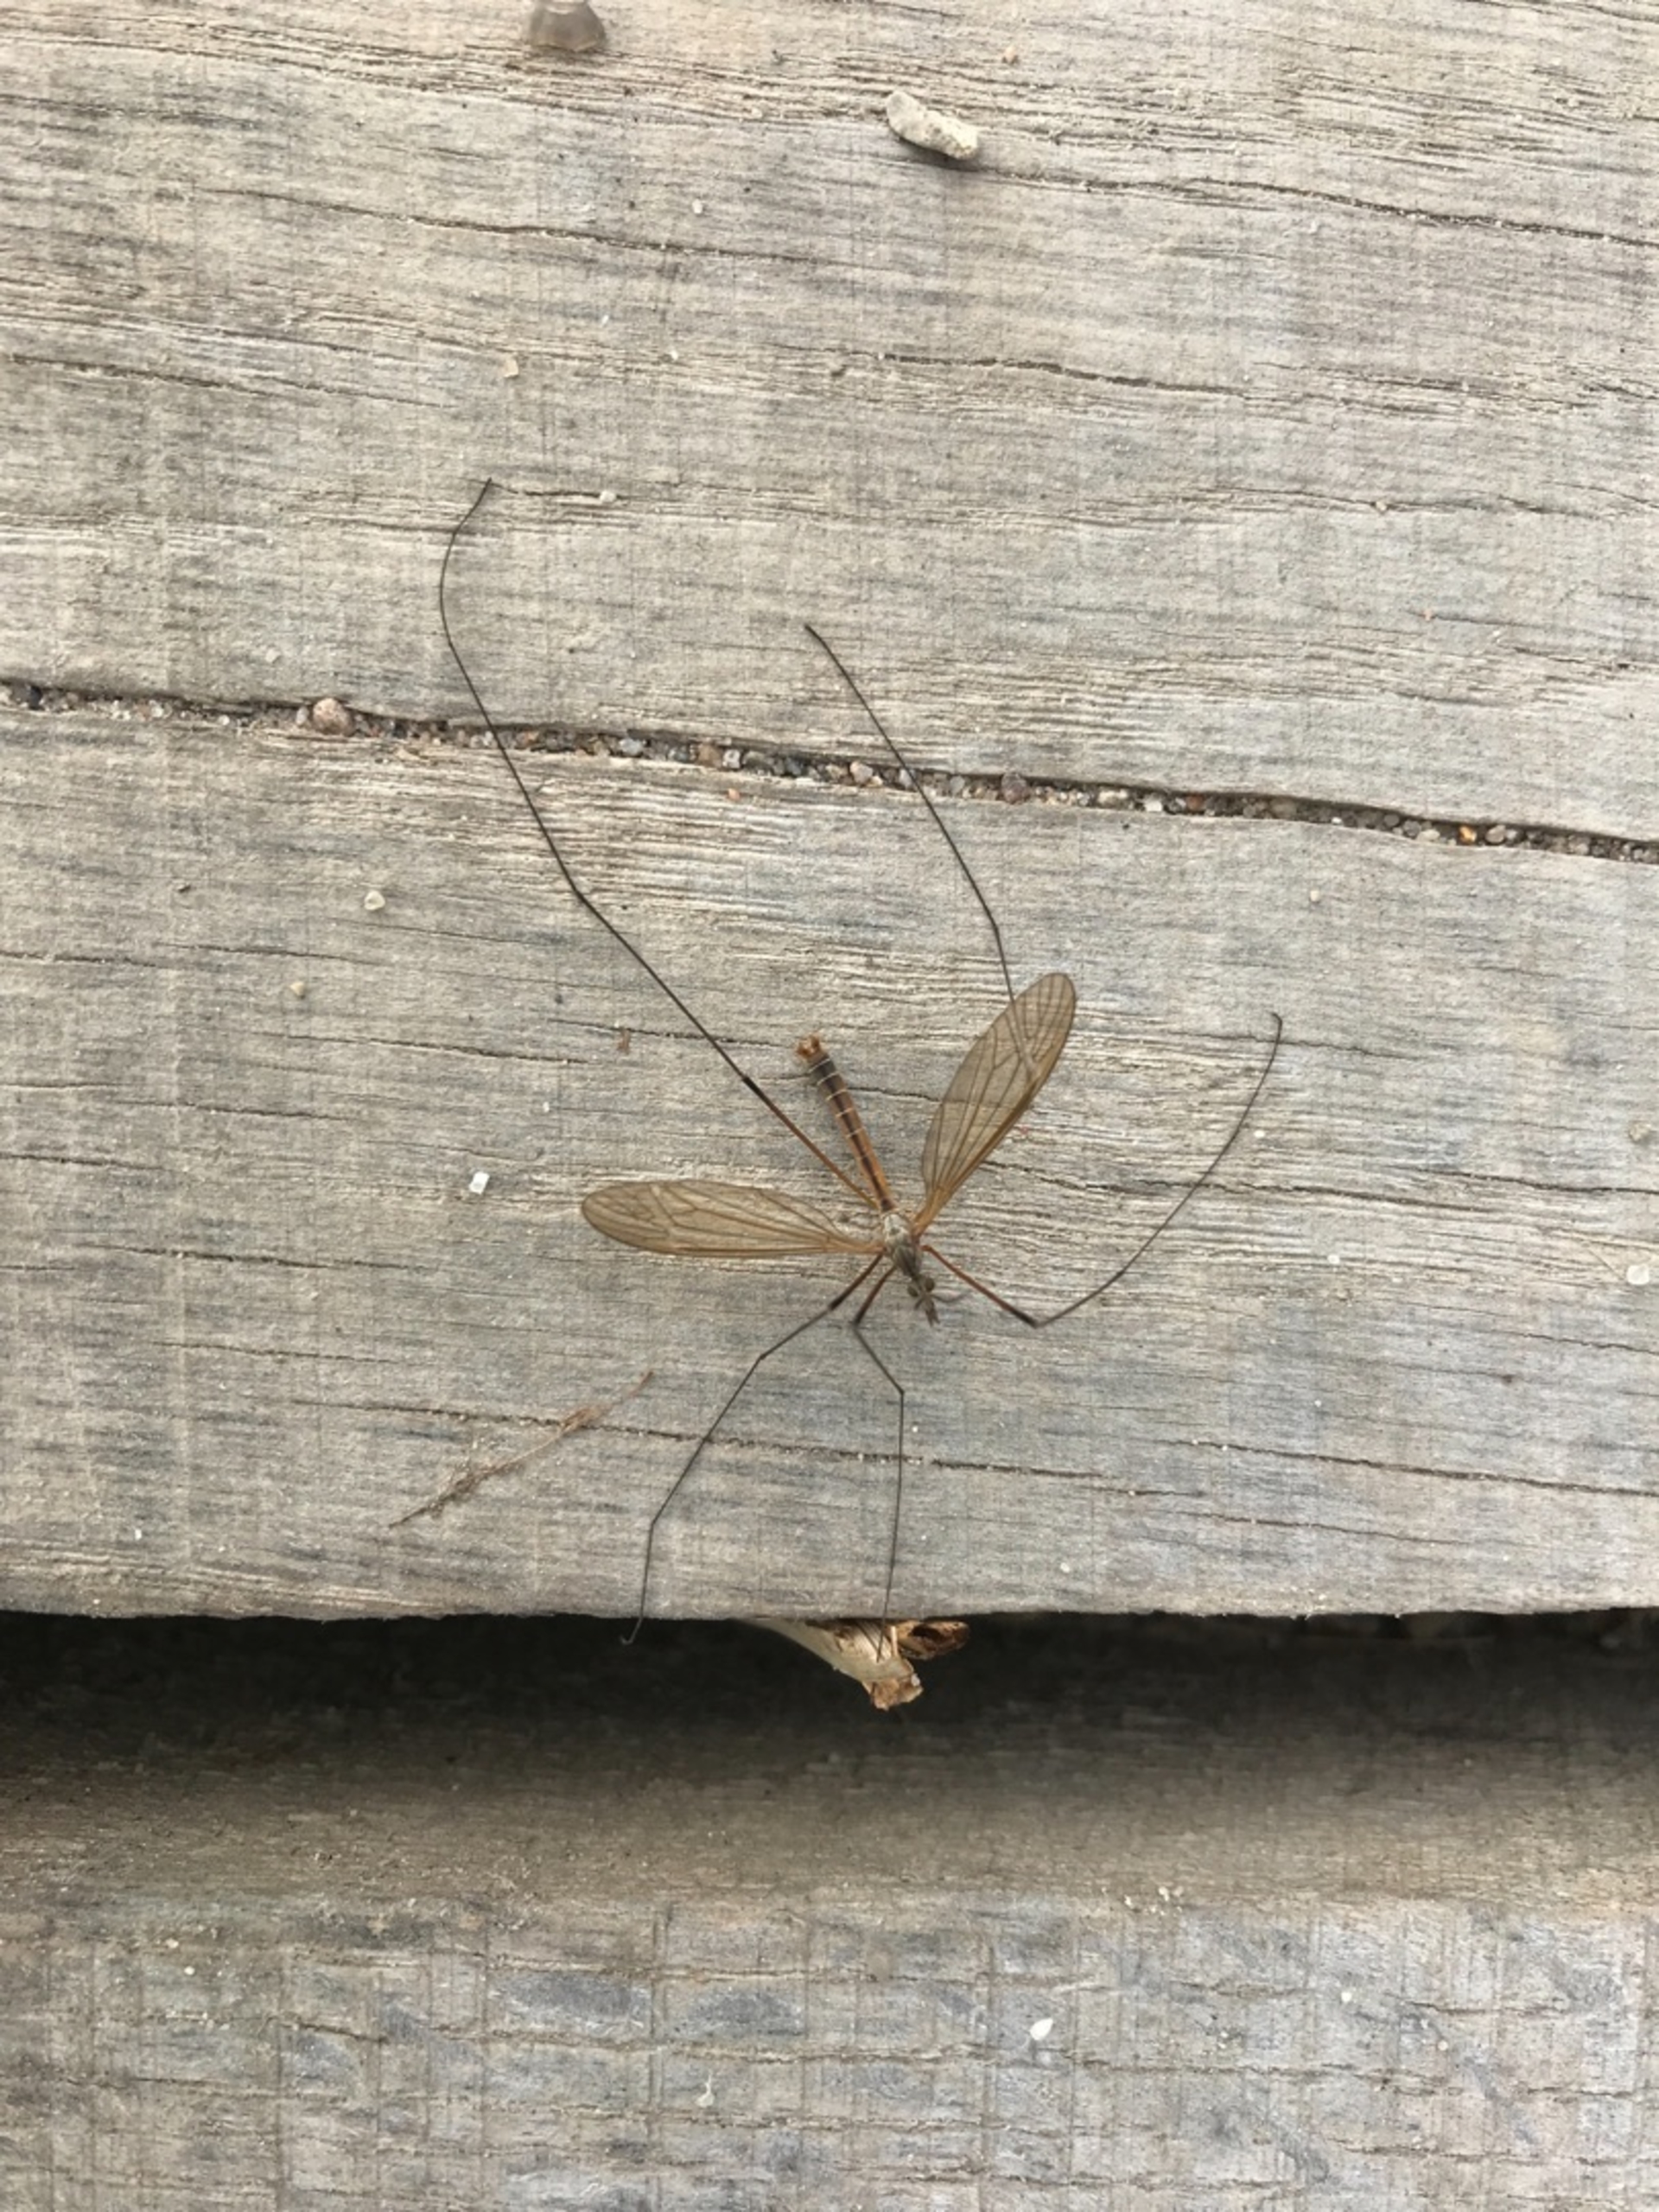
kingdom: Animalia
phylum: Arthropoda
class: Insecta
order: Diptera
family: Tipulidae
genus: Tipula
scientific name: Tipula luteipennis
